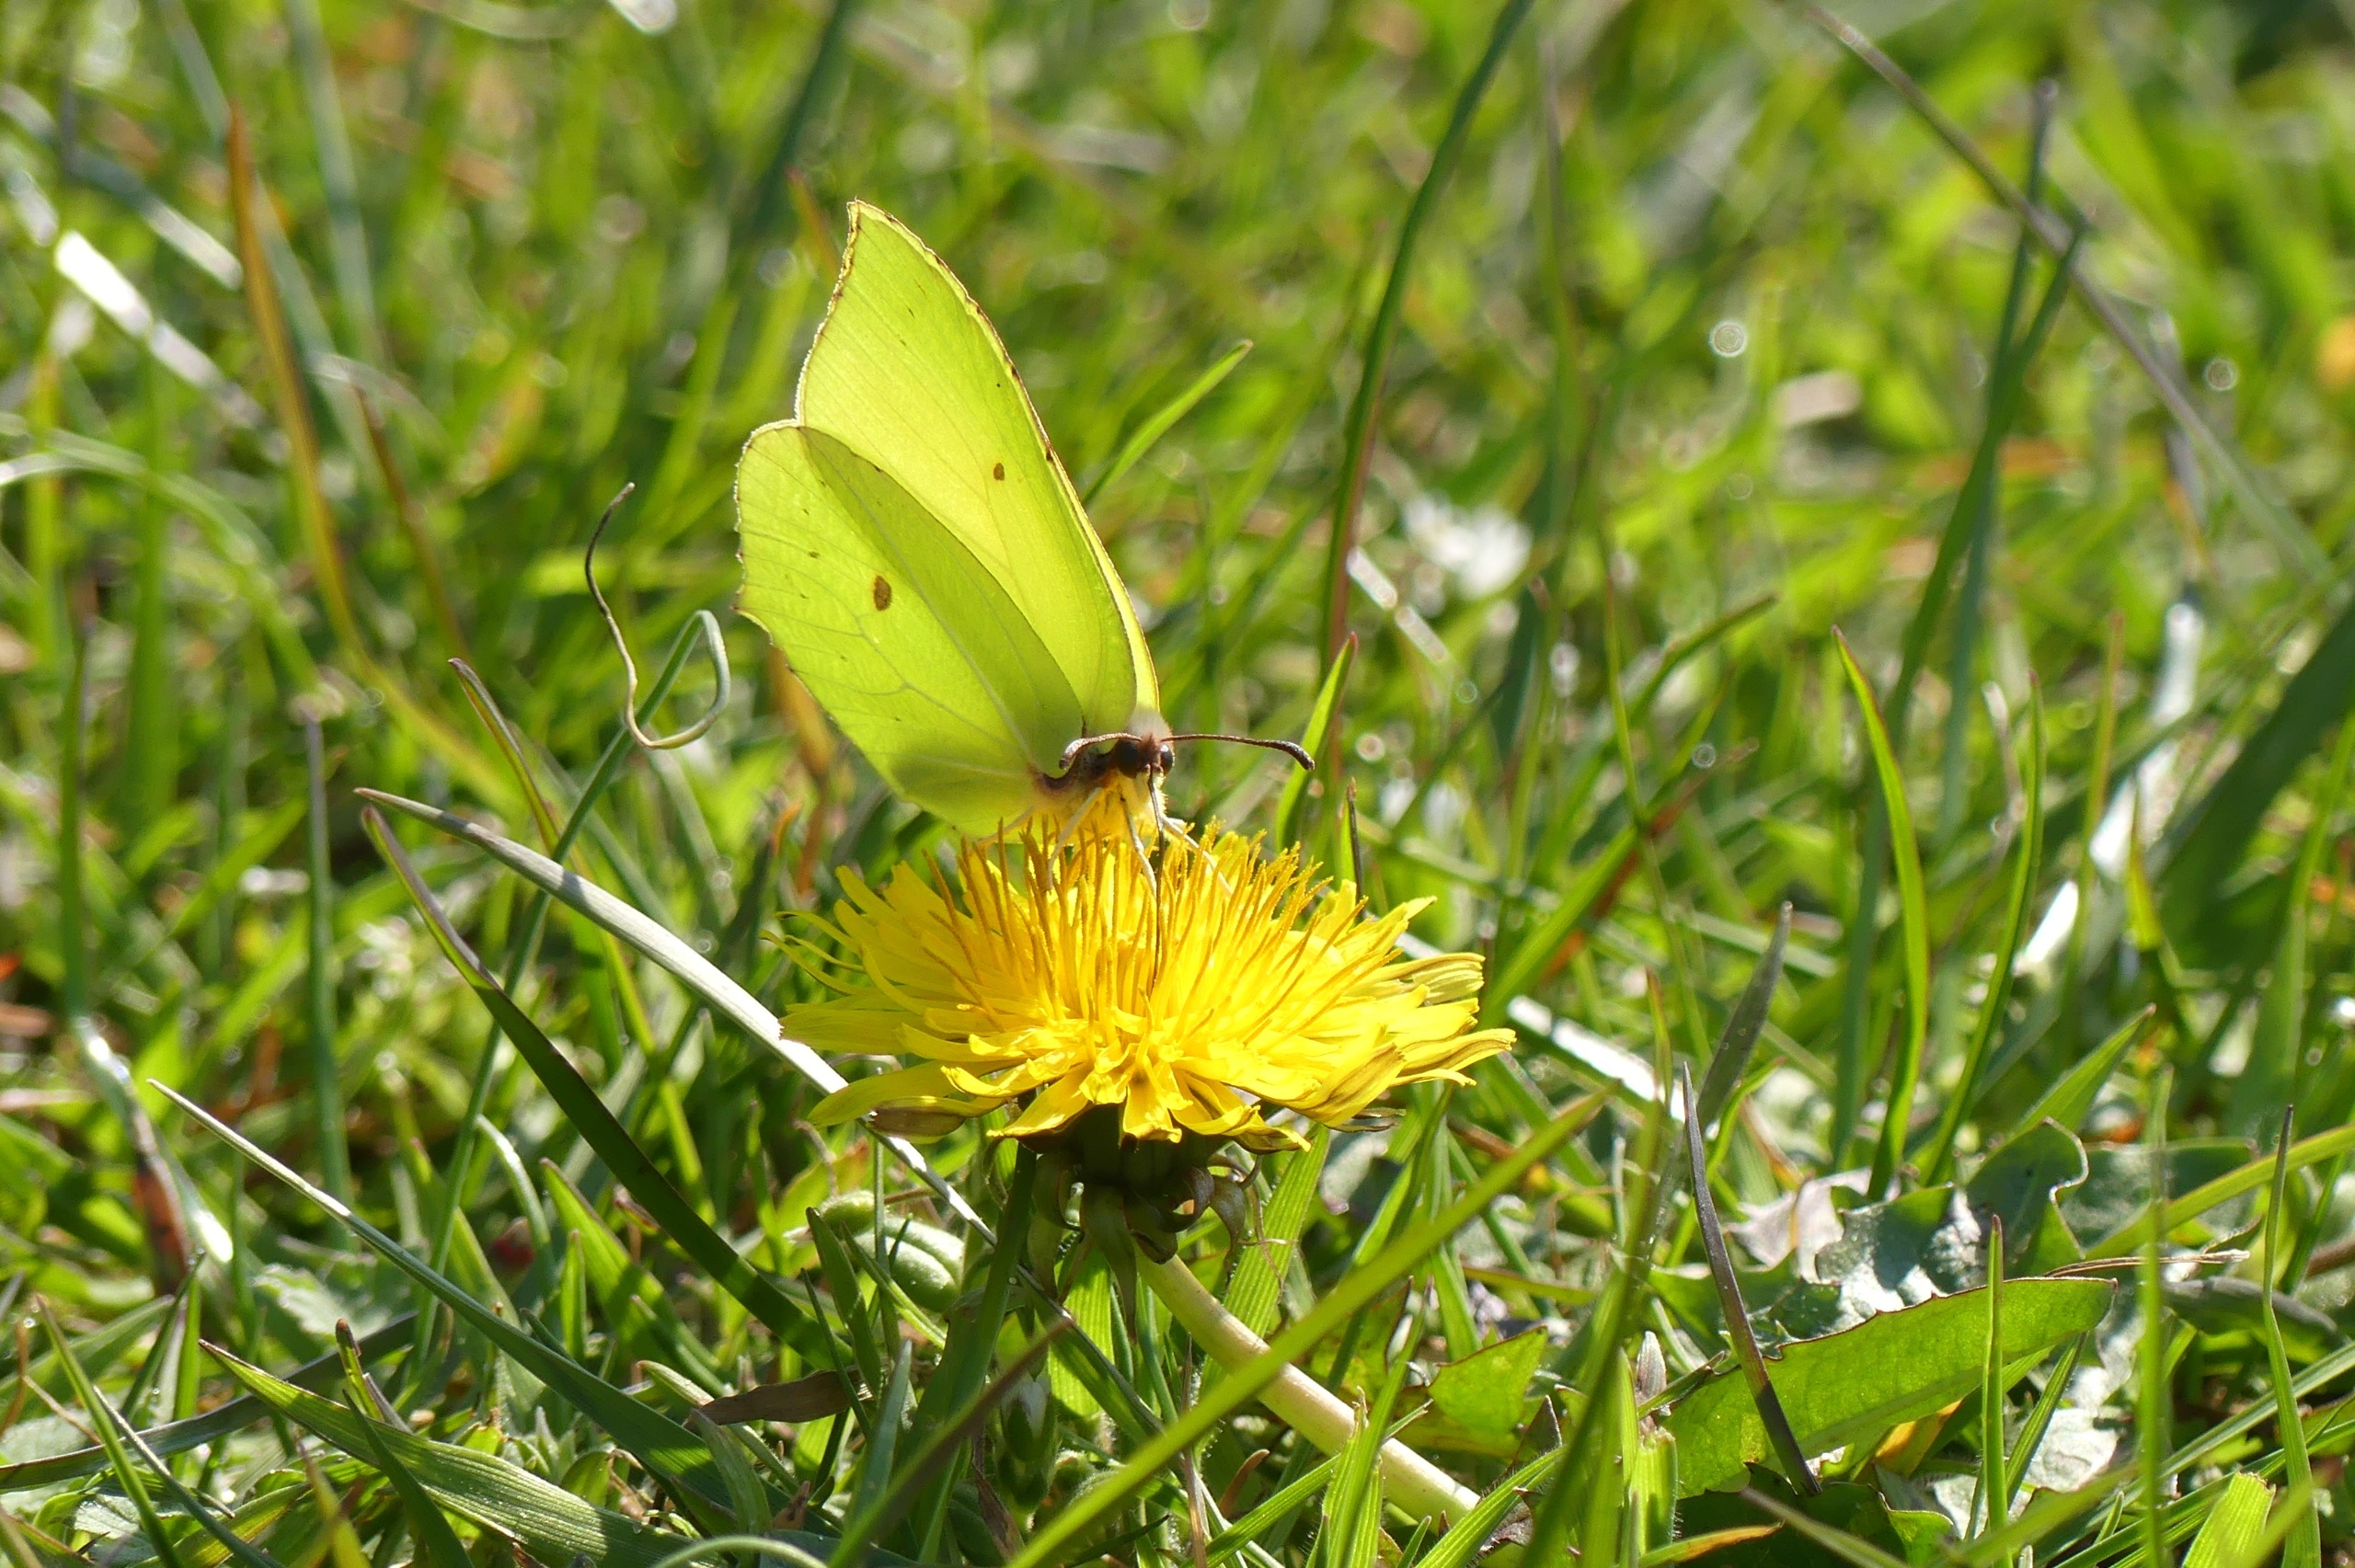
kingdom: Animalia
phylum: Arthropoda
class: Insecta
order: Lepidoptera
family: Pieridae
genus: Gonepteryx
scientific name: Gonepteryx rhamni
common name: Citronsommerfugl
